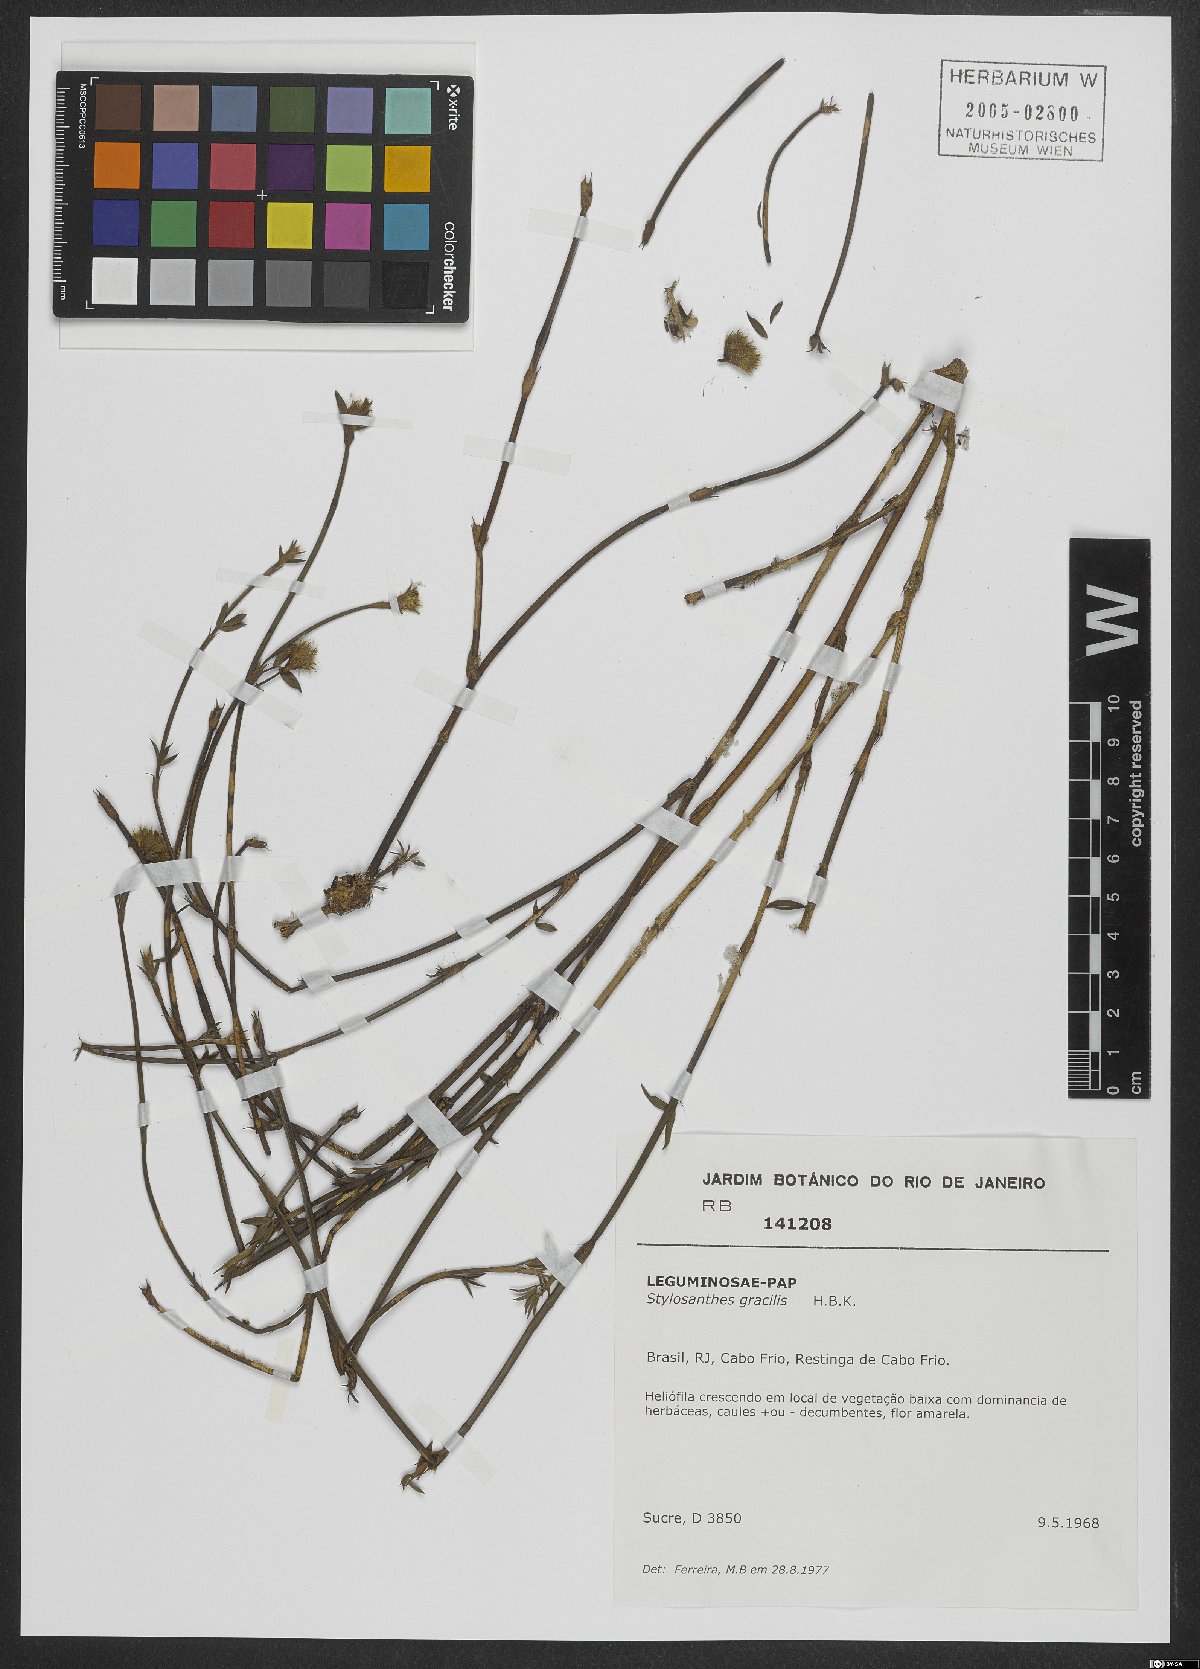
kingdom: Plantae
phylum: Tracheophyta
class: Magnoliopsida
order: Fabales
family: Fabaceae
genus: Stylosanthes
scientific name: Stylosanthes guianensis
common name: Pencil flower
